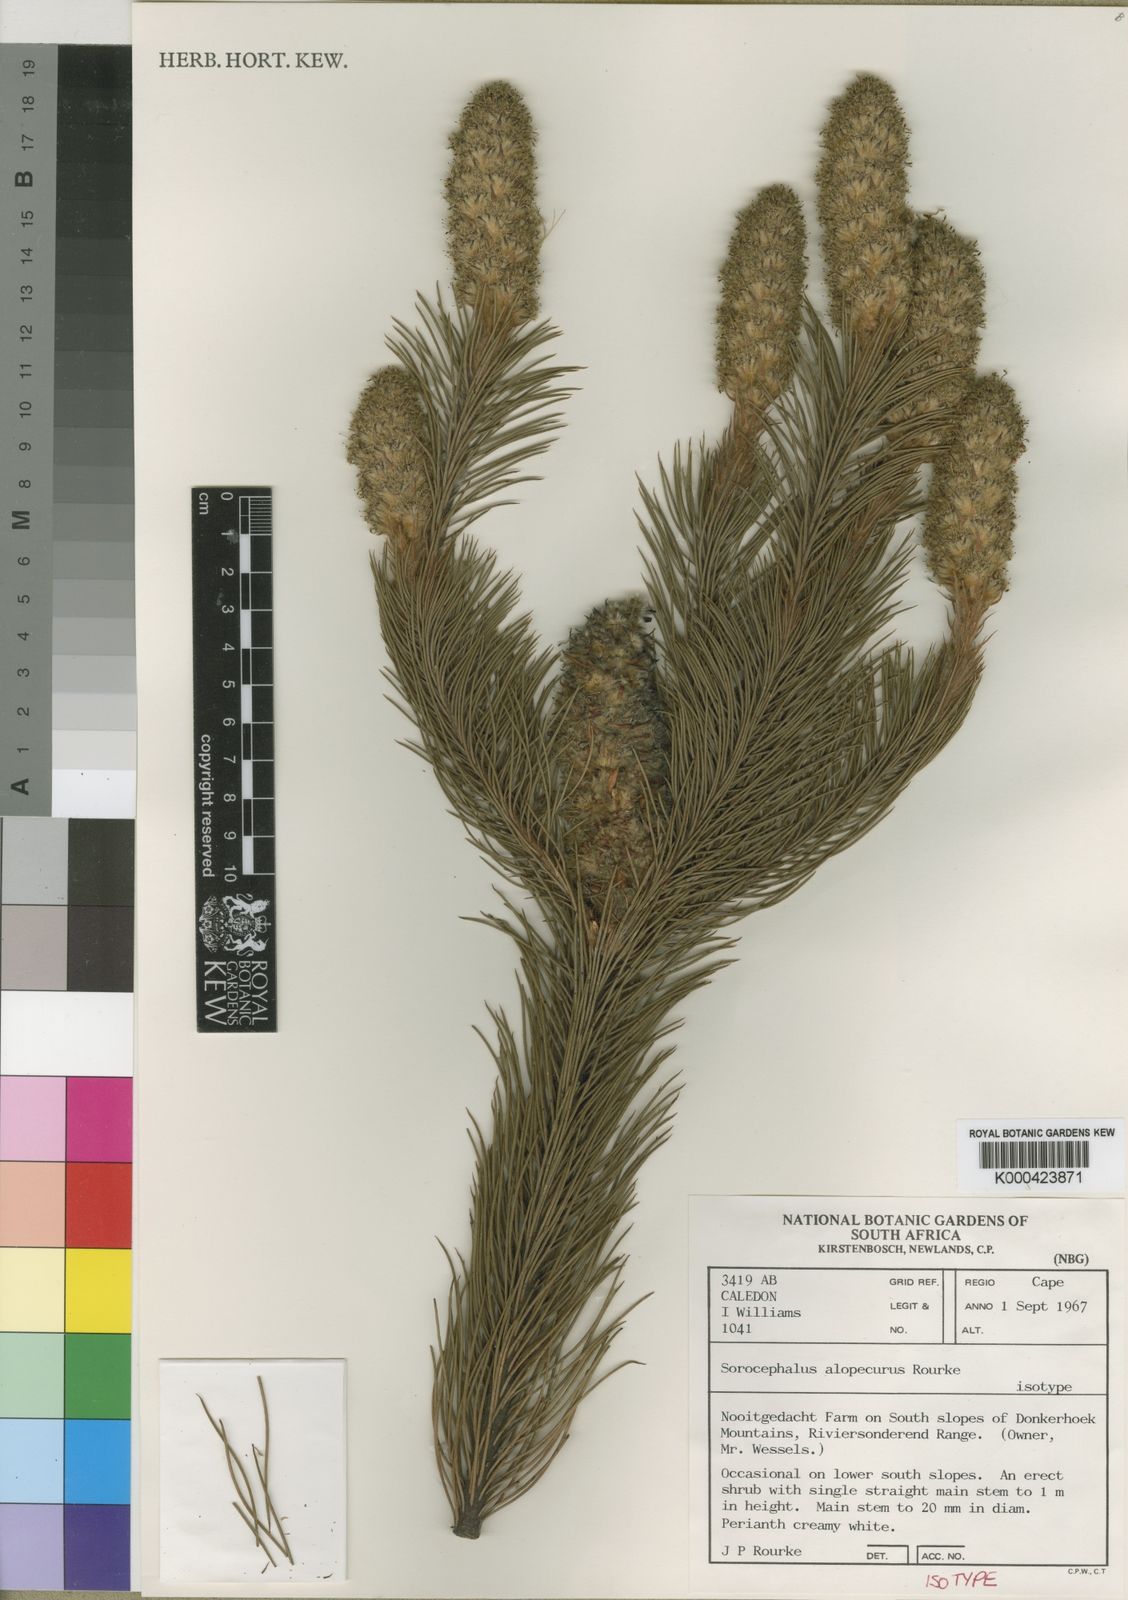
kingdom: Plantae
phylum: Tracheophyta
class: Magnoliopsida
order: Proteales
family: Proteaceae
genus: Sorocephalus
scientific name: Sorocephalus alopecurus
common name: Woolly-stalk clusterhead
